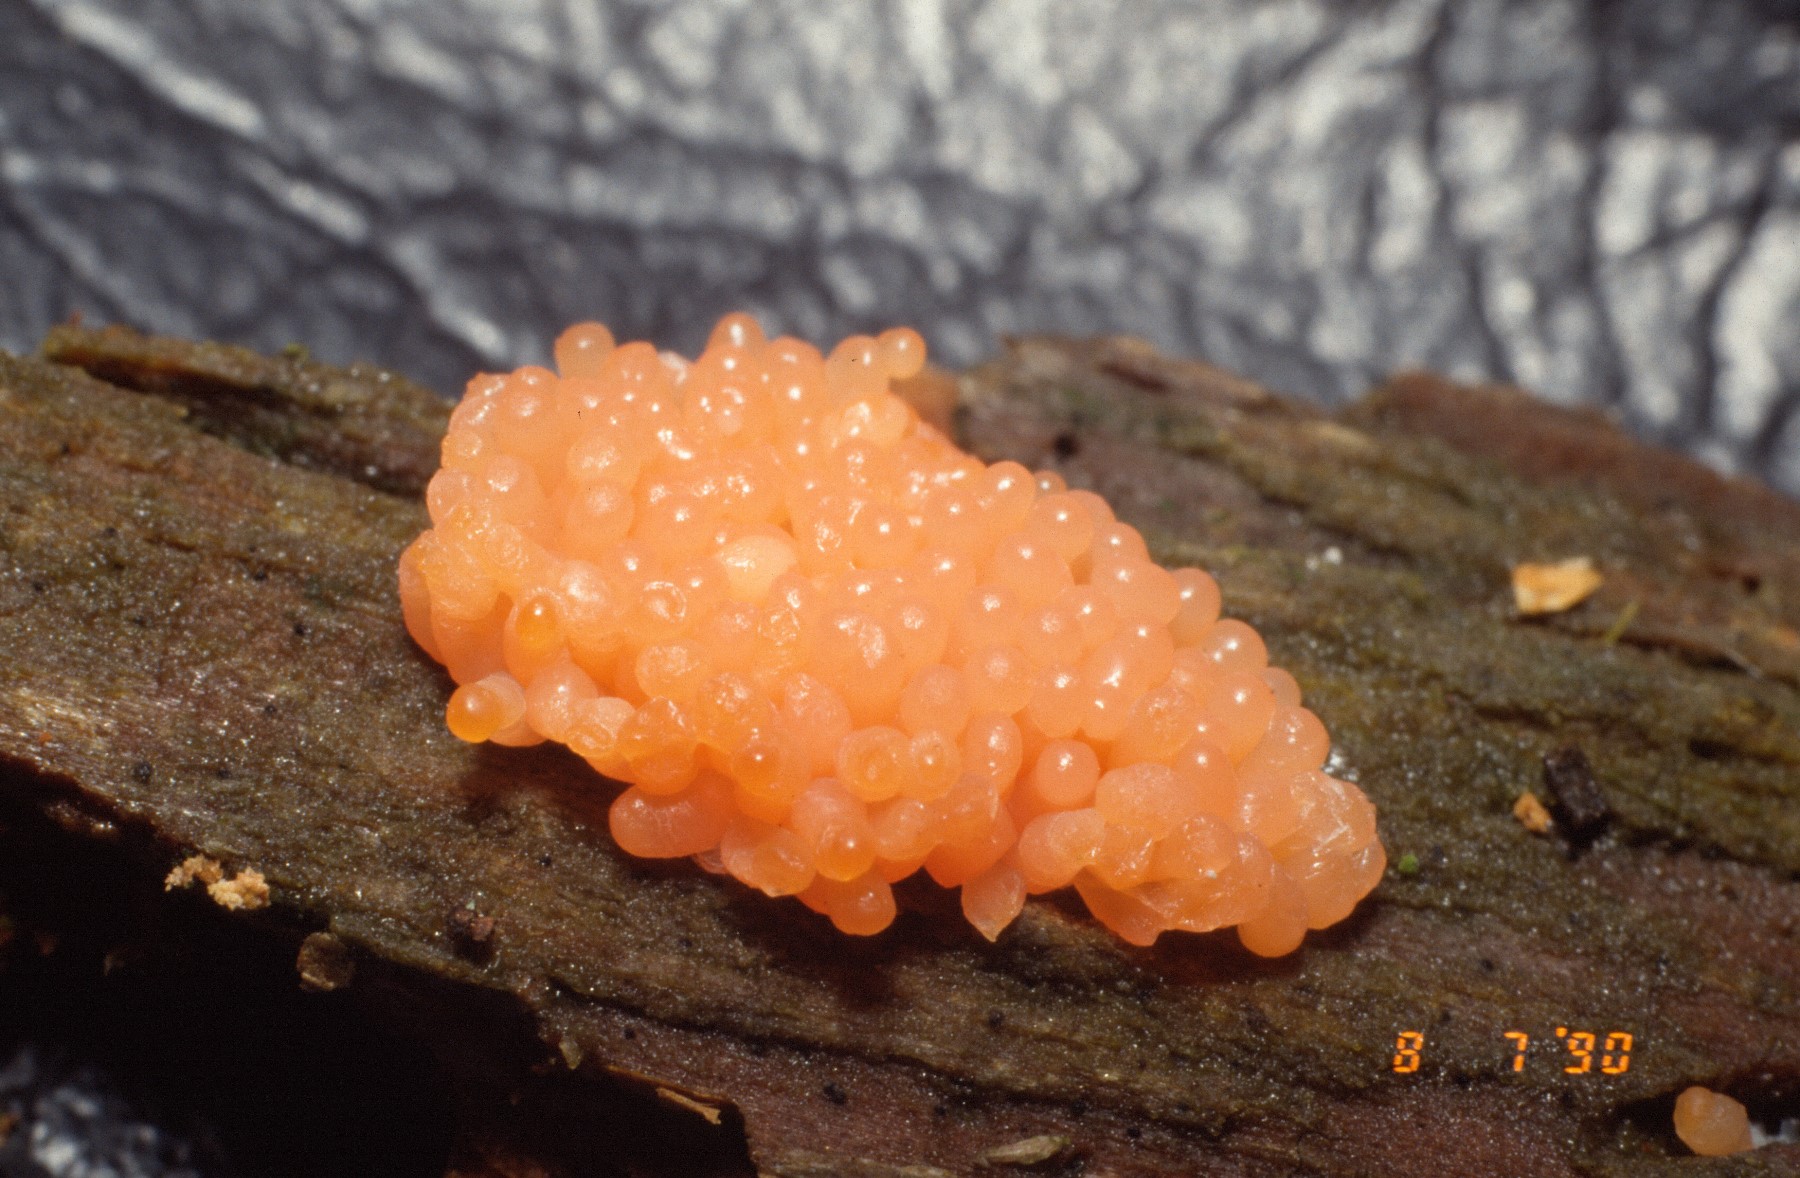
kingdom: Protozoa
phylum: Mycetozoa
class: Myxomycetes
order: Cribrariales
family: Tubiferaceae
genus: Tubifera
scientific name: Tubifera ferruginosa
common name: kanel-støvrør
